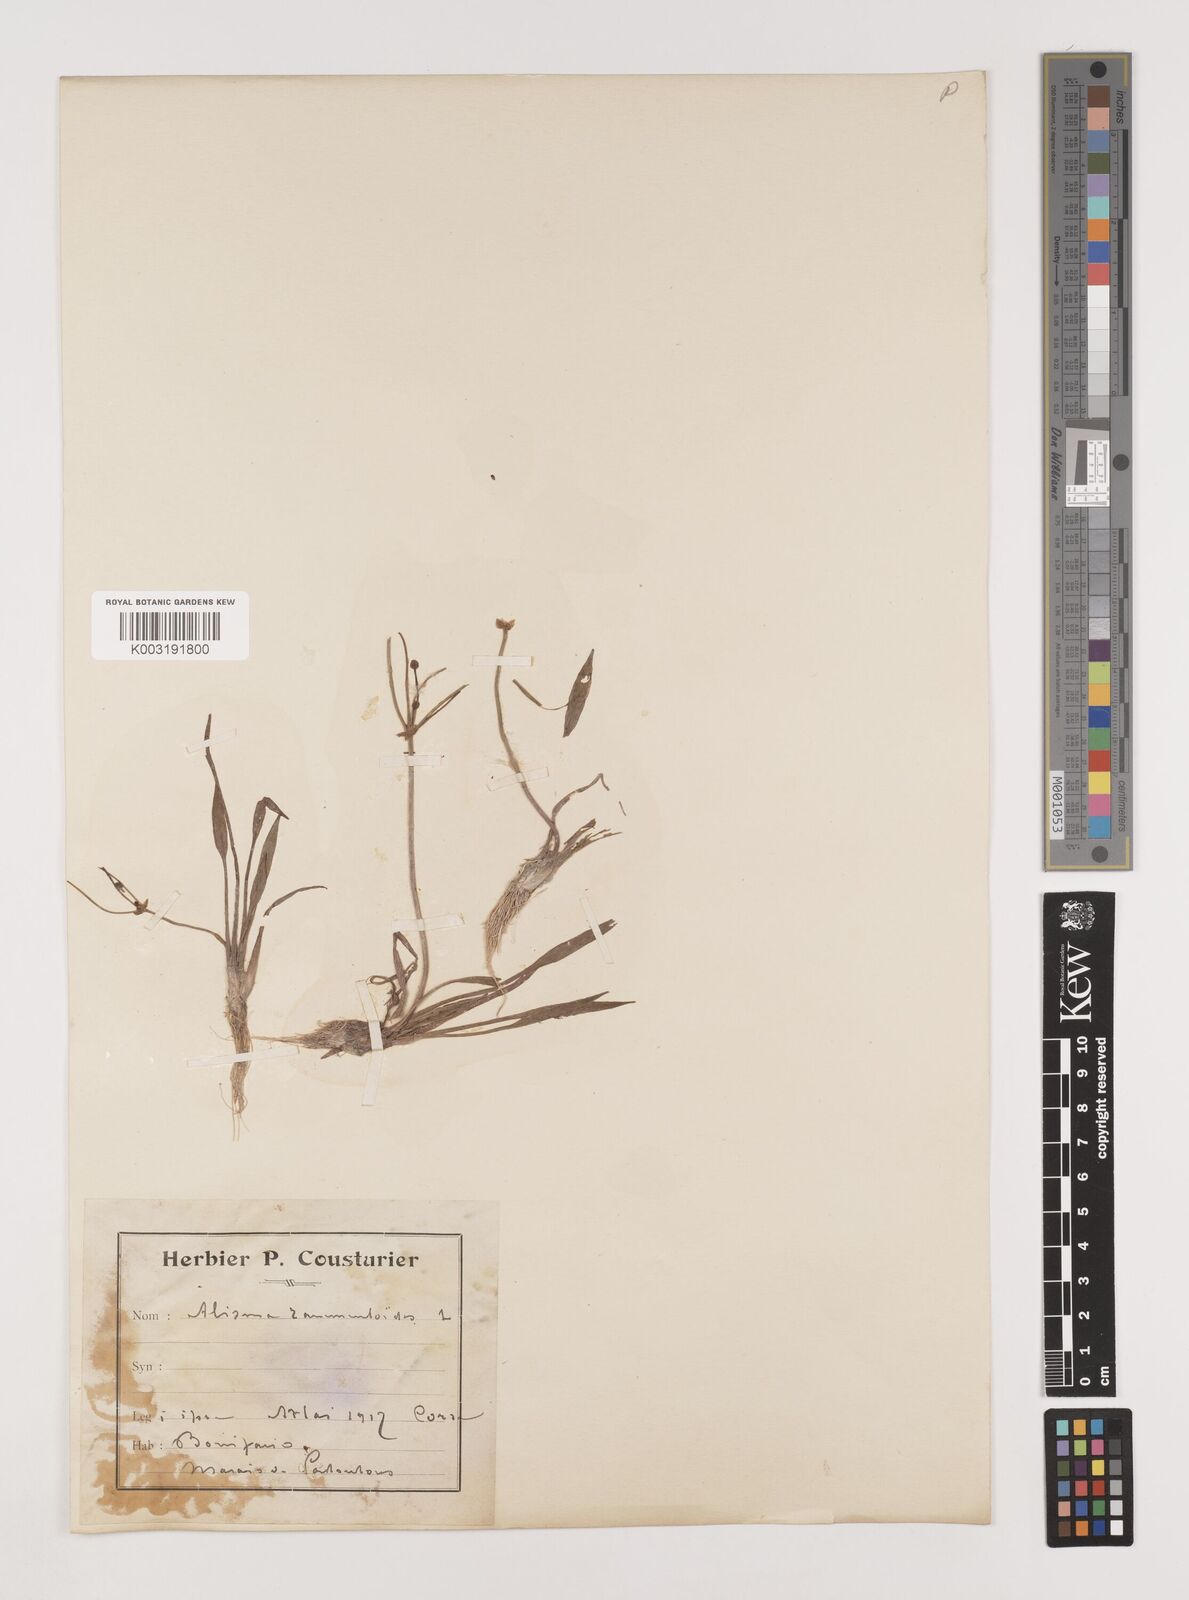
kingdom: Plantae
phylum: Tracheophyta
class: Liliopsida
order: Alismatales
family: Alismataceae
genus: Baldellia
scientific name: Baldellia ranunculoides
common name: Lesser water-plantain
